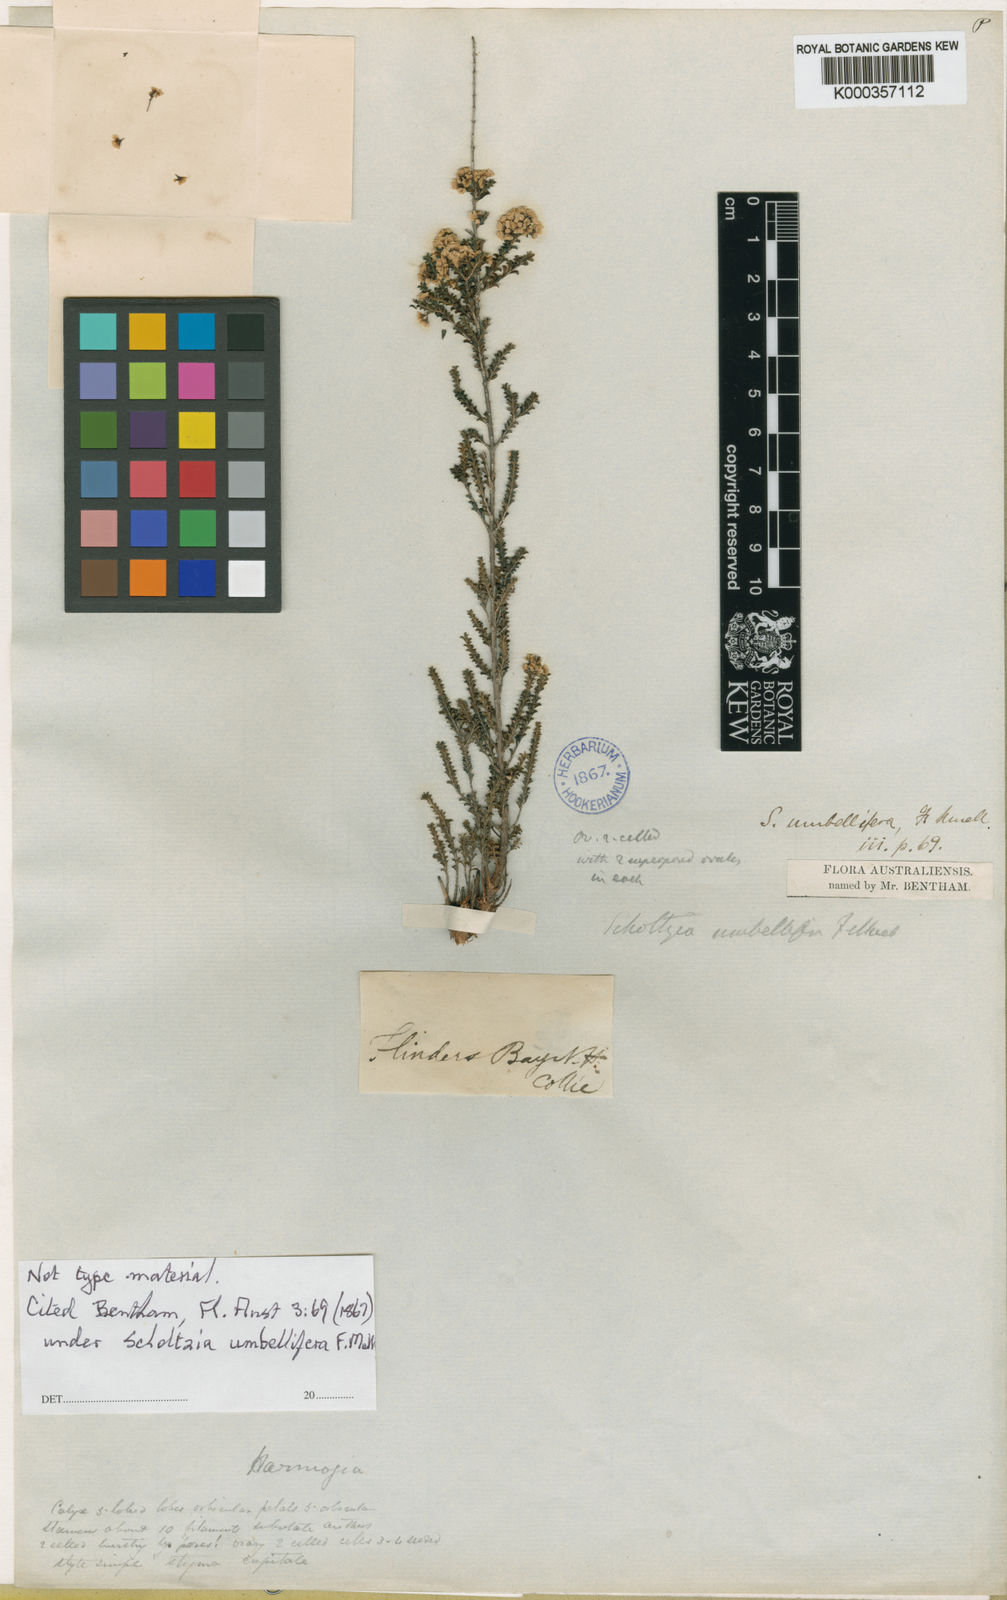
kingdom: Plantae
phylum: Tracheophyta
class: Magnoliopsida
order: Myrtales
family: Myrtaceae
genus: Scholtzia
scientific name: Scholtzia umbellifera
